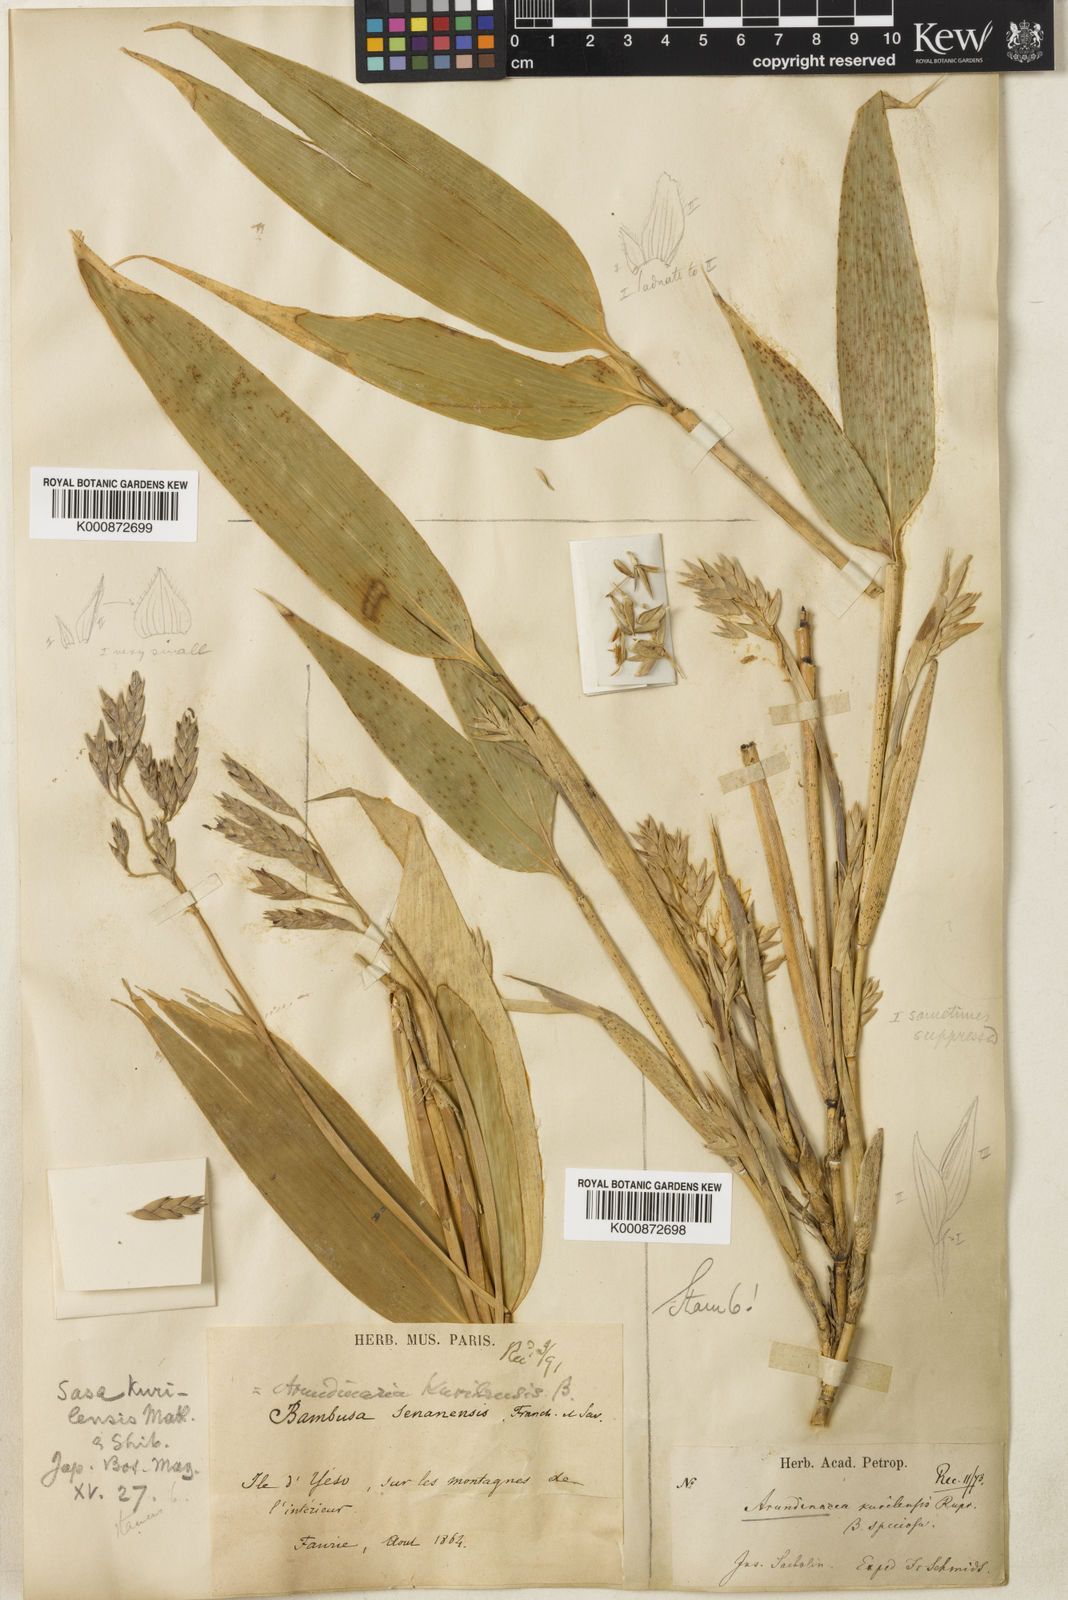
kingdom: Plantae
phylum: Tracheophyta
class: Liliopsida
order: Poales
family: Poaceae
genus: Sasa
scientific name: Sasa kurilensis
